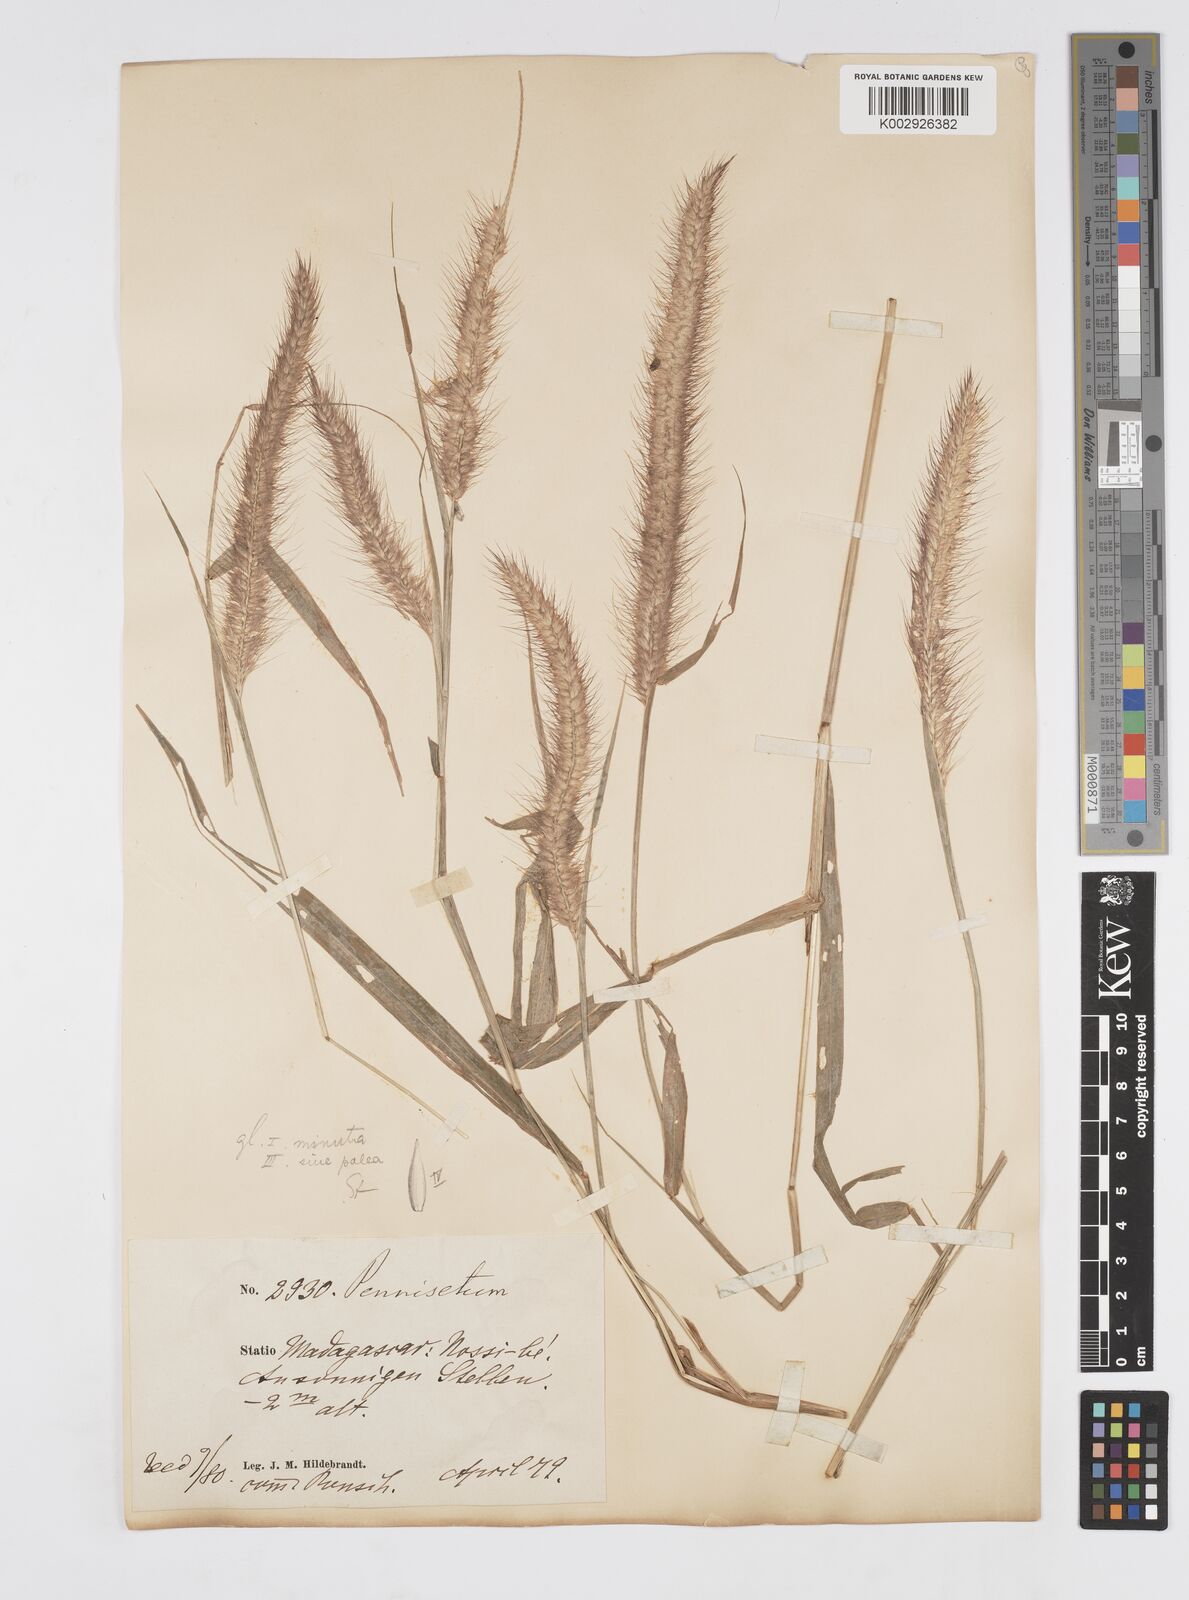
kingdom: Plantae
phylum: Tracheophyta
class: Liliopsida
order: Poales
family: Poaceae
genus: Setaria
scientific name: Setaria parviflora
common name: Knotroot bristle-grass
